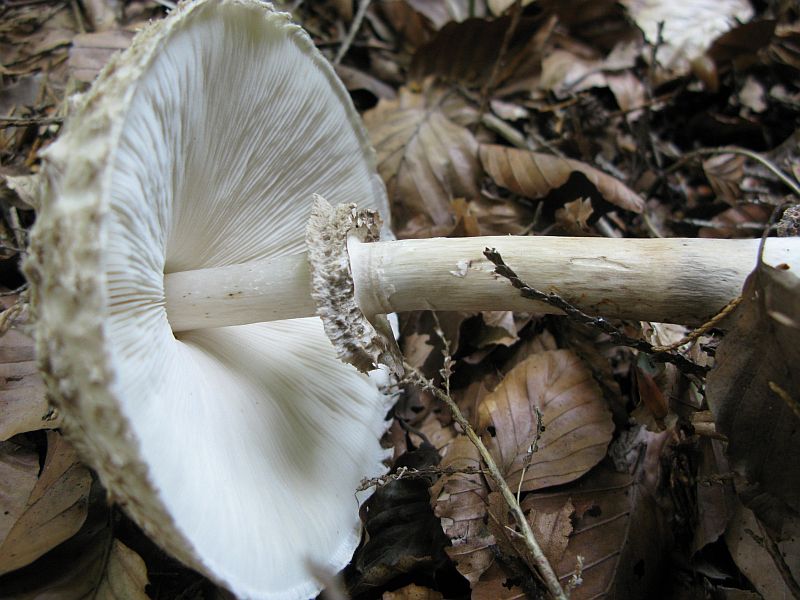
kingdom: Fungi
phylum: Basidiomycota
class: Agaricomycetes
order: Agaricales
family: Agaricaceae
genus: Chlorophyllum
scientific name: Chlorophyllum olivieri
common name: almindelig rabarberhat
